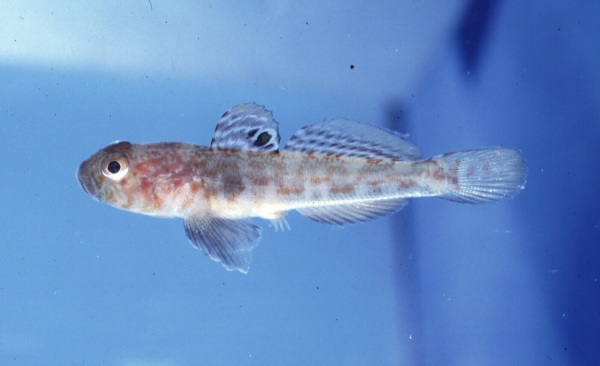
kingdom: Animalia
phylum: Chordata
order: Perciformes
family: Gobiidae
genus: Caffrogobius
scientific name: Caffrogobius agulhensis
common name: Agulhas goby
